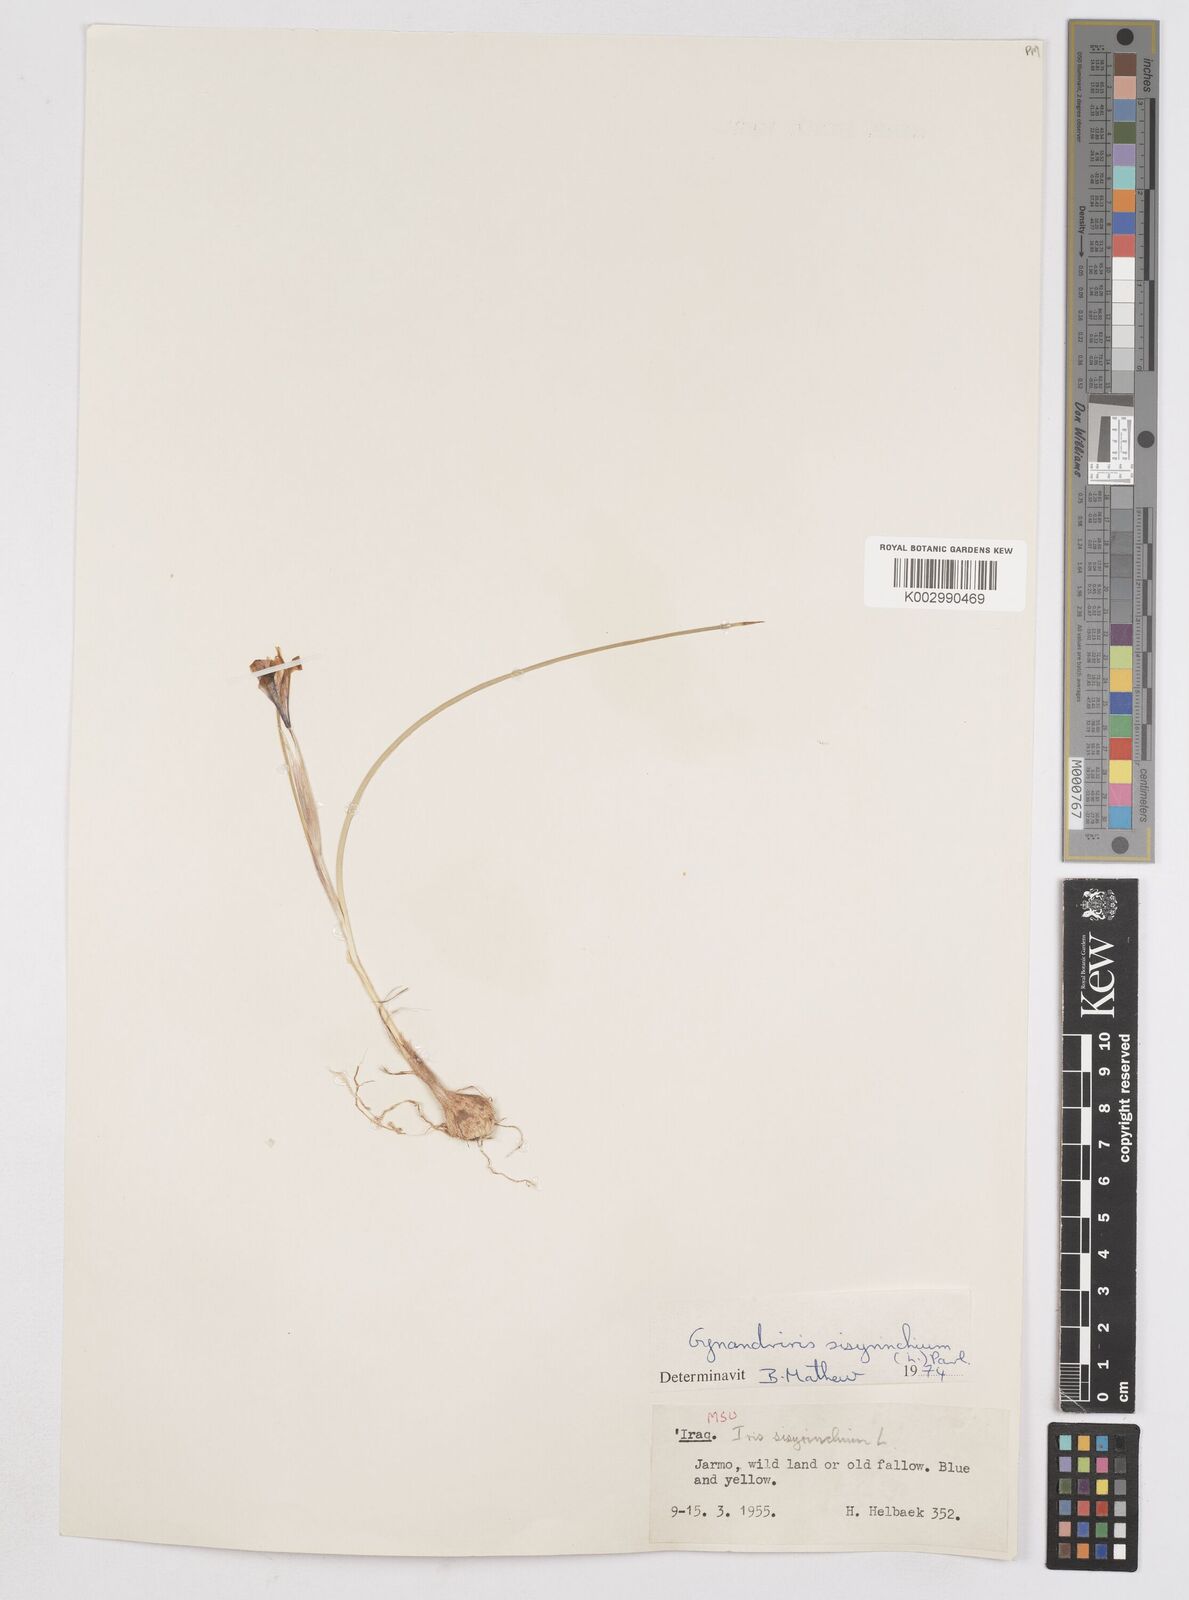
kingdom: Plantae
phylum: Tracheophyta
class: Liliopsida
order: Asparagales
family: Iridaceae
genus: Moraea
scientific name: Moraea sisyrinchium
